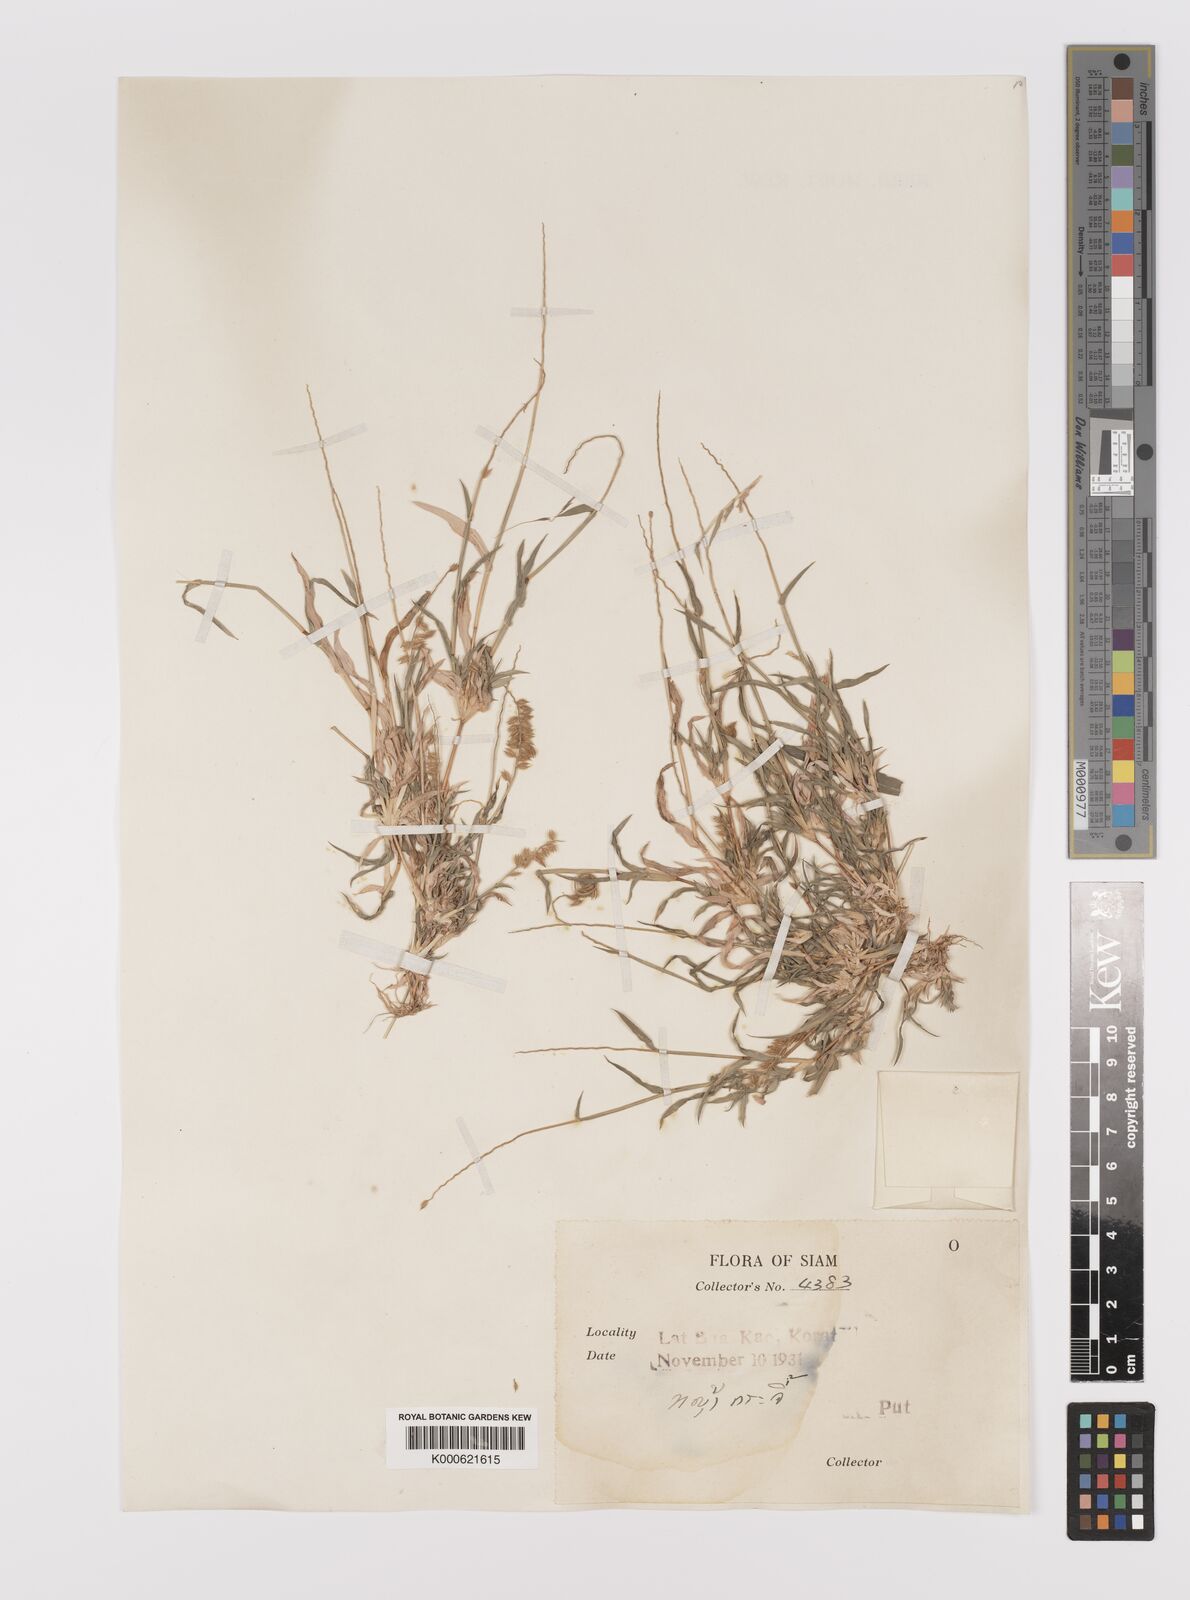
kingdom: Plantae
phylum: Tracheophyta
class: Liliopsida
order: Poales
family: Poaceae
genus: Tragus
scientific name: Tragus mongolorum
